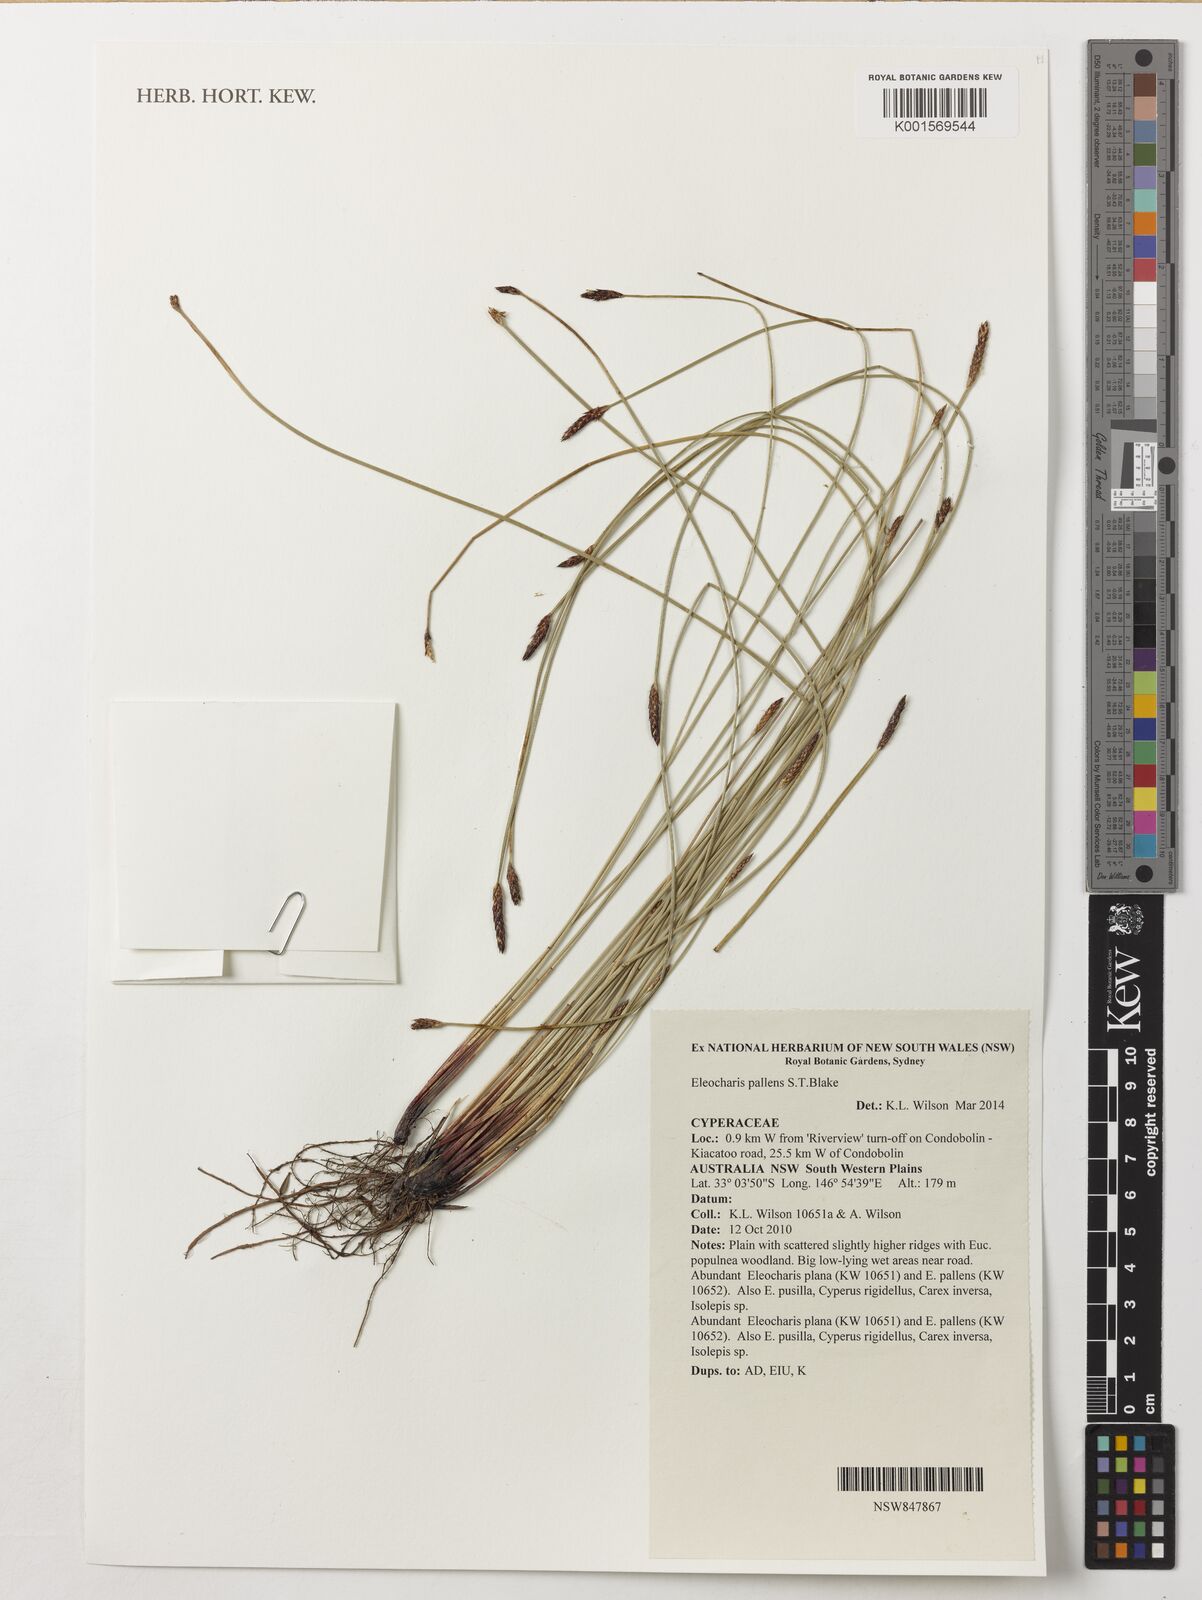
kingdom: Plantae
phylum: Tracheophyta
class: Liliopsida
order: Poales
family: Cyperaceae
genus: Eleocharis
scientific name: Eleocharis pallens
